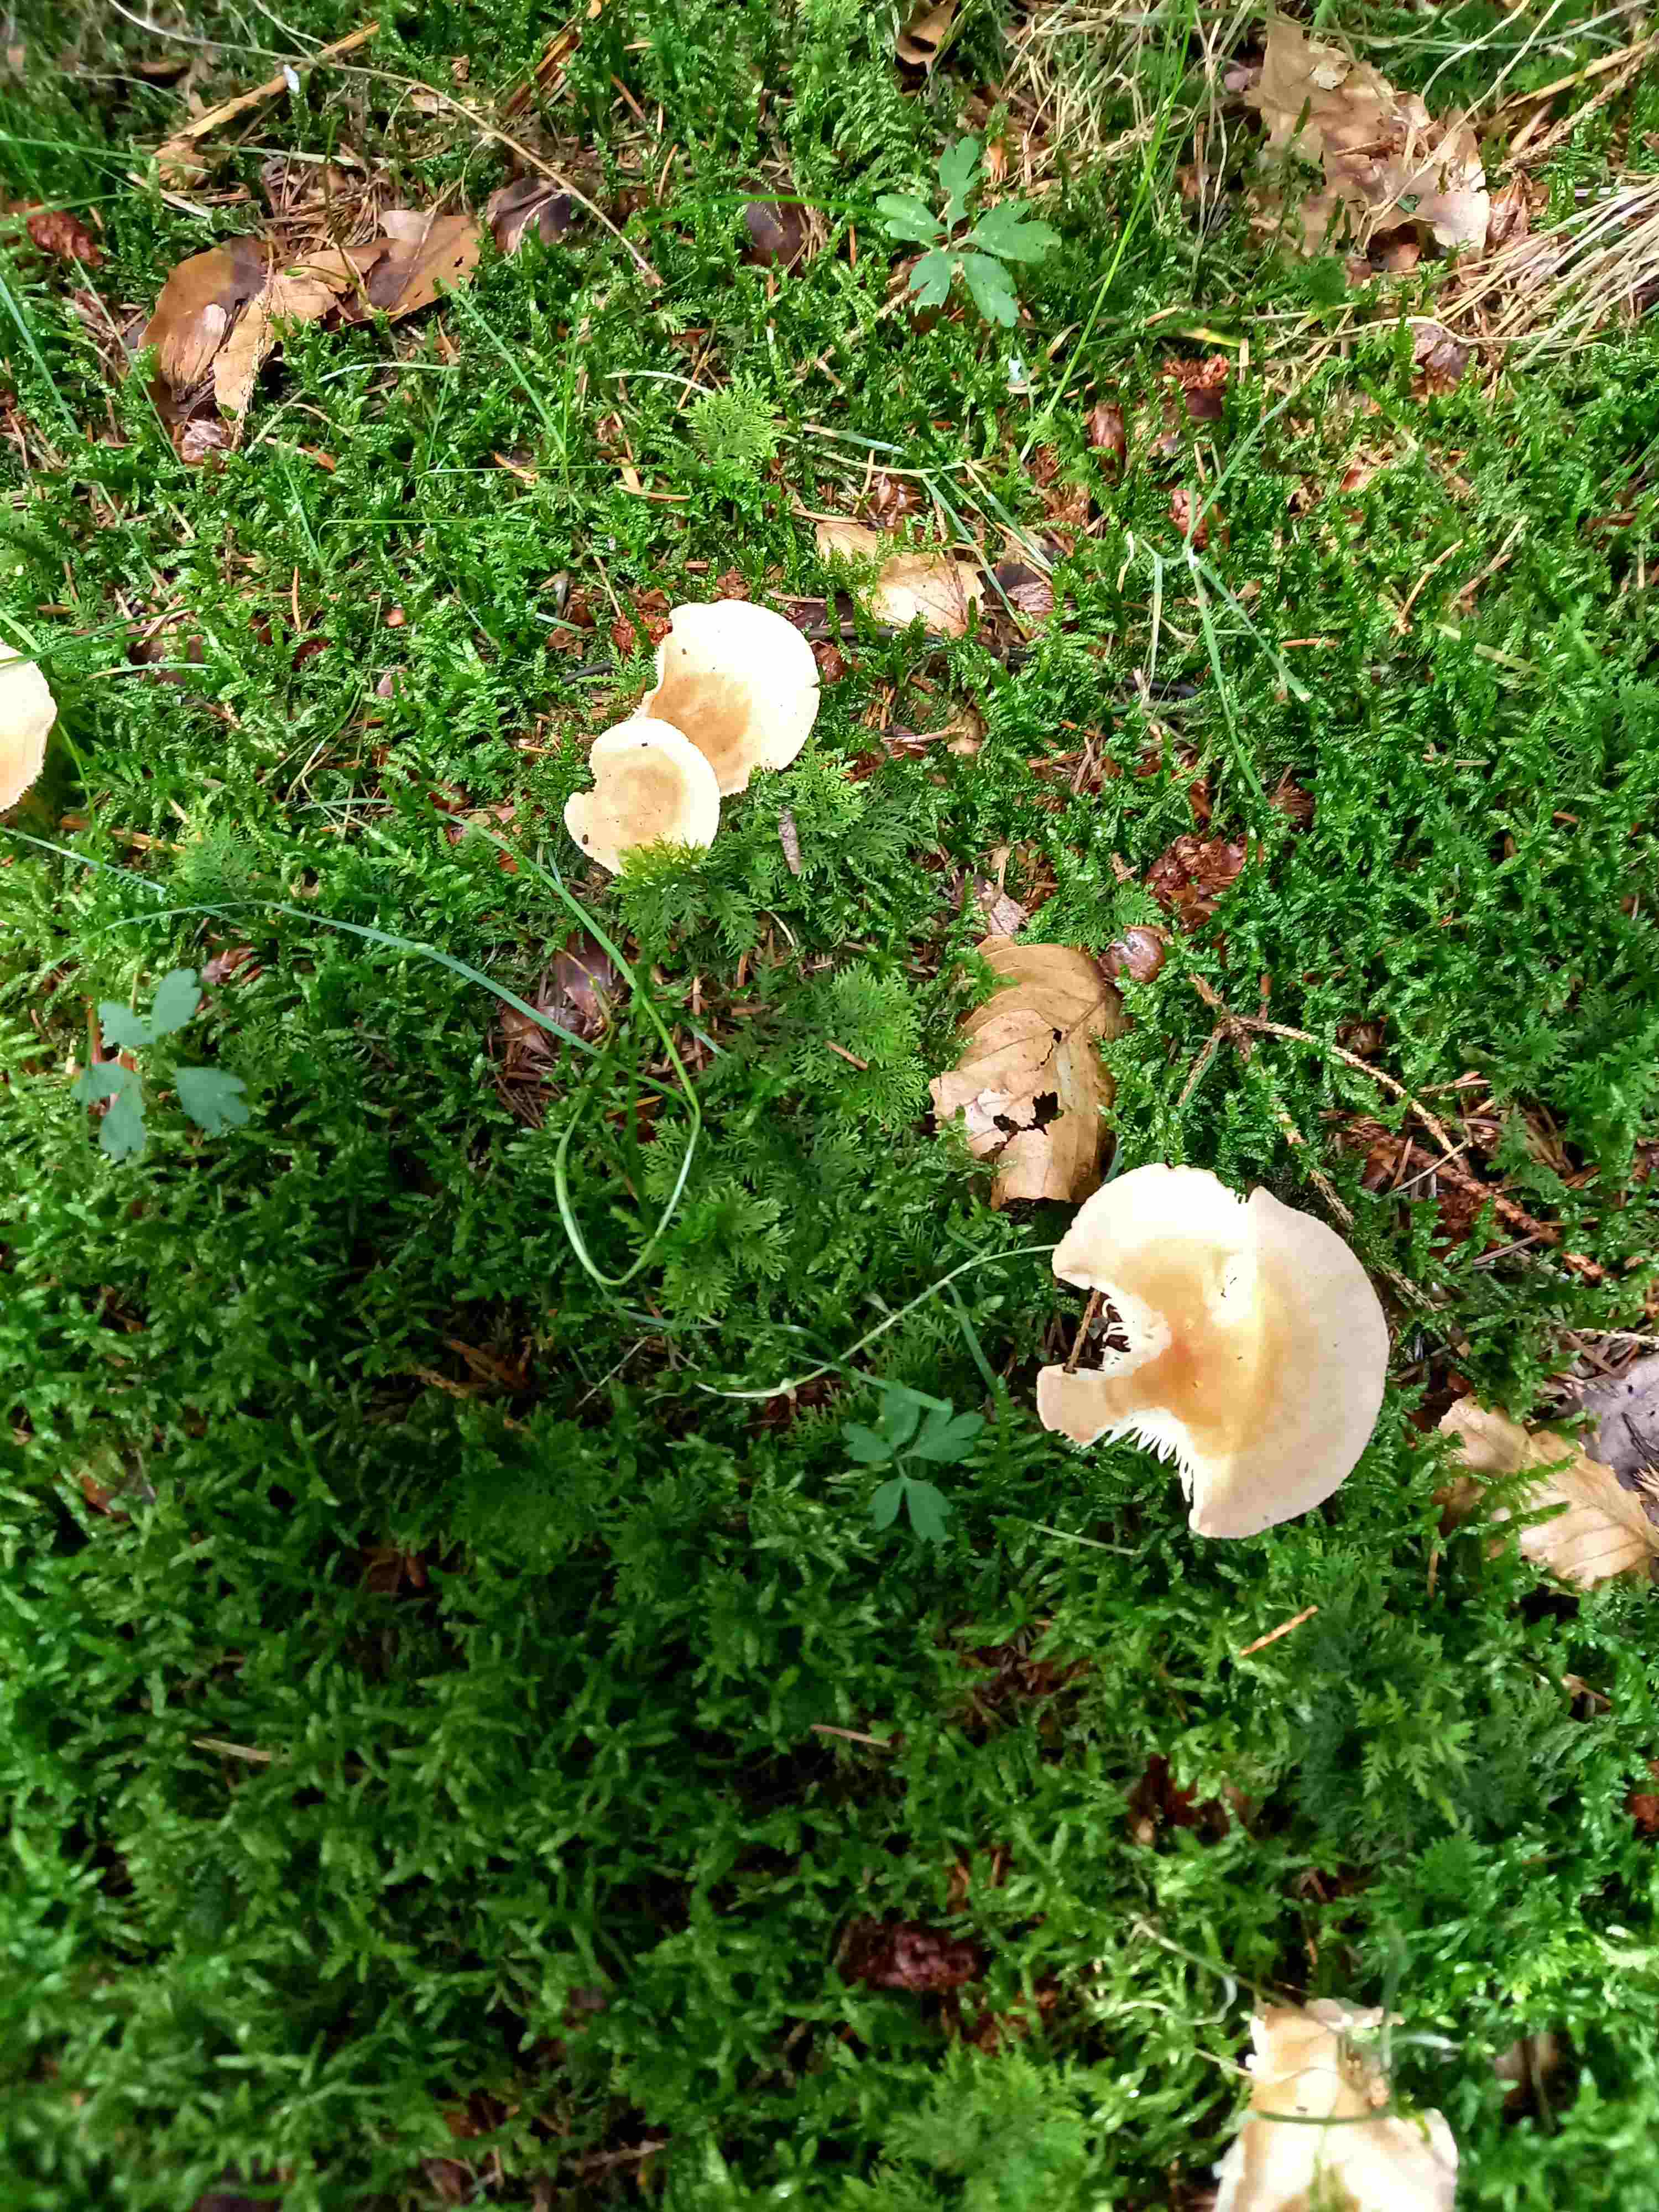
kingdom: Fungi
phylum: Basidiomycota
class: Agaricomycetes
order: Agaricales
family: Tricholomataceae
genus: Infundibulicybe
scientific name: Infundibulicybe gibba
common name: almindelig tragthat
